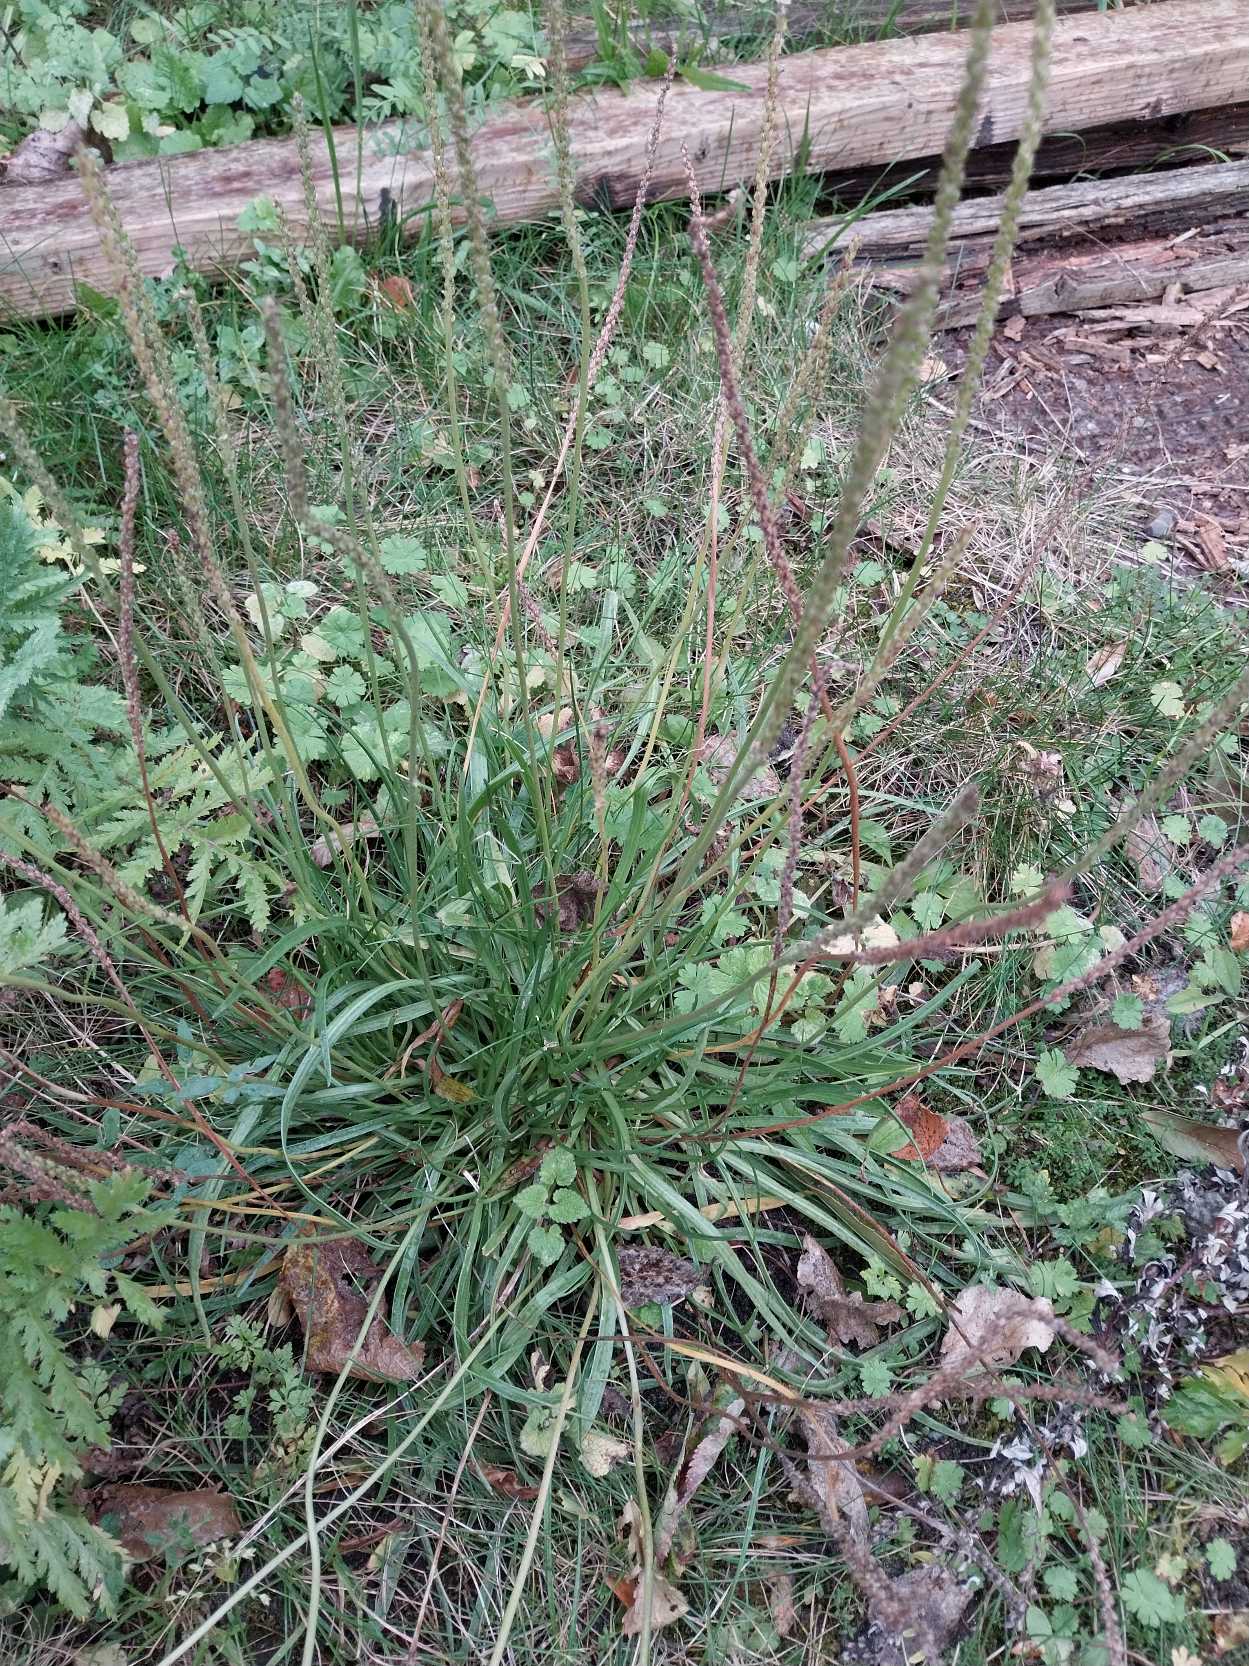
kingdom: Plantae
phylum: Tracheophyta
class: Magnoliopsida
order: Lamiales
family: Plantaginaceae
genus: Plantago
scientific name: Plantago maritima
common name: Strand-vejbred
